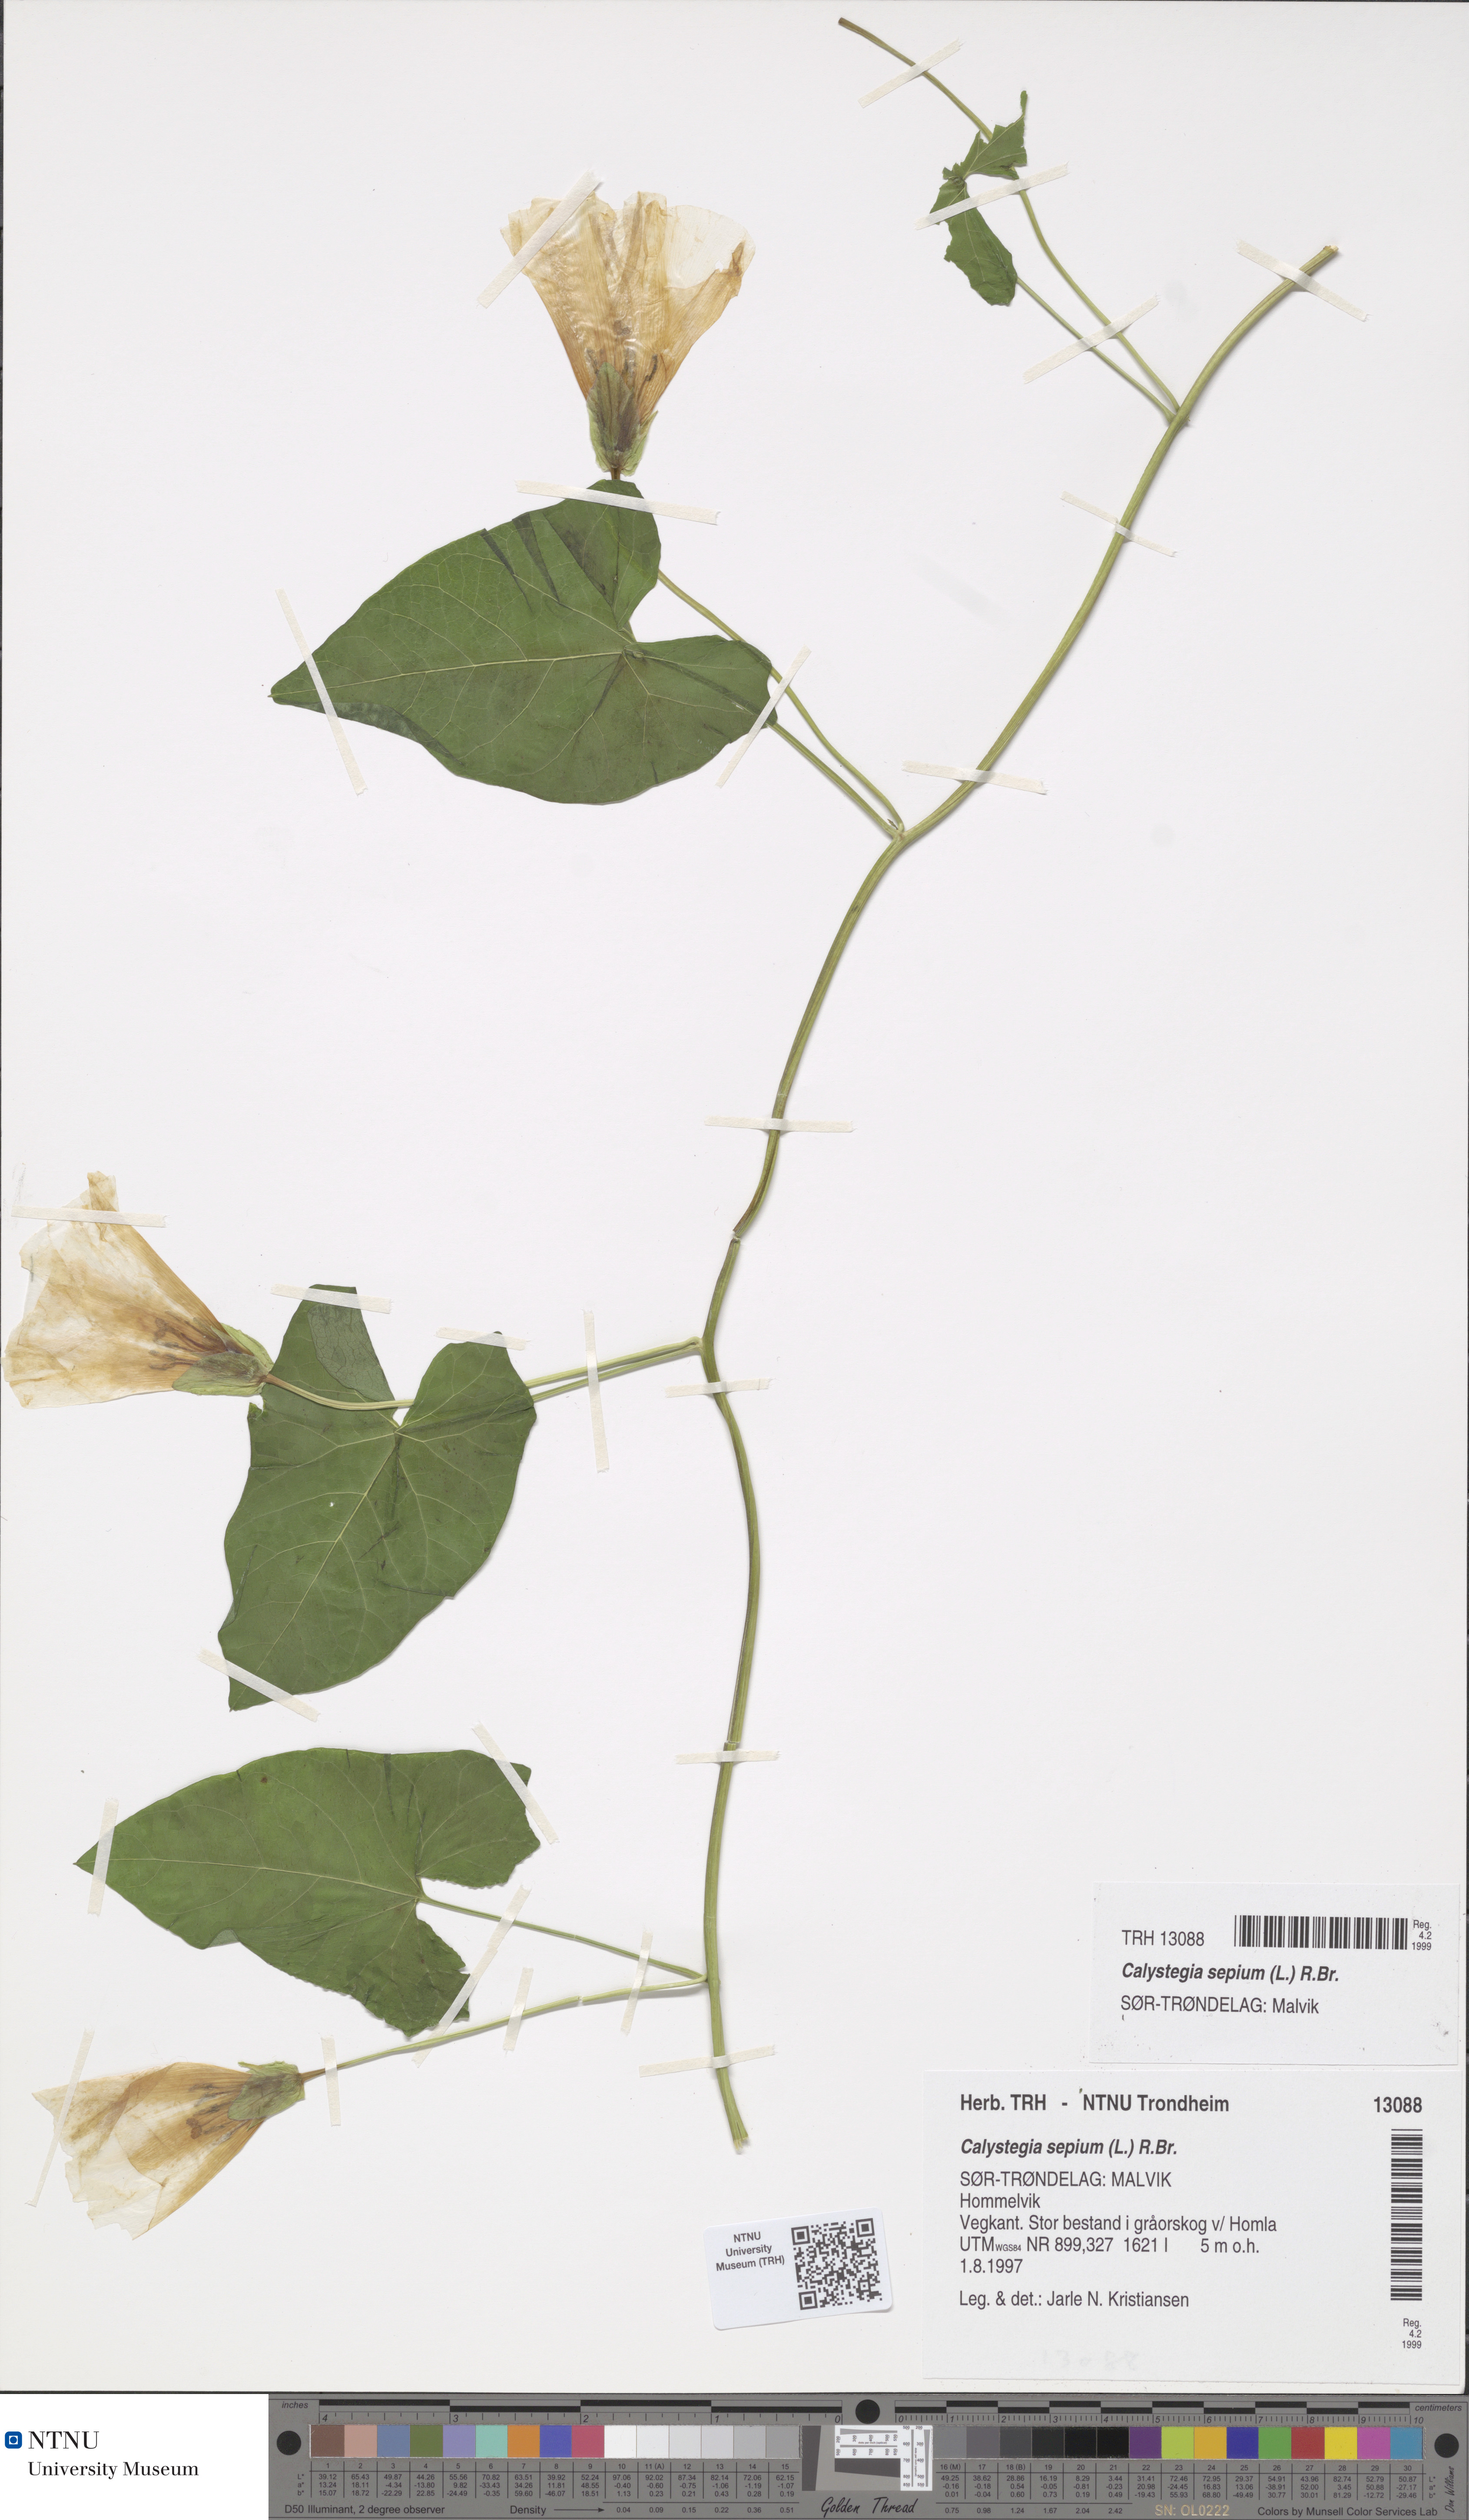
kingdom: Plantae
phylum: Tracheophyta
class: Magnoliopsida
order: Solanales
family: Convolvulaceae
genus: Calystegia
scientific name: Calystegia sepium
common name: Hedge bindweed
